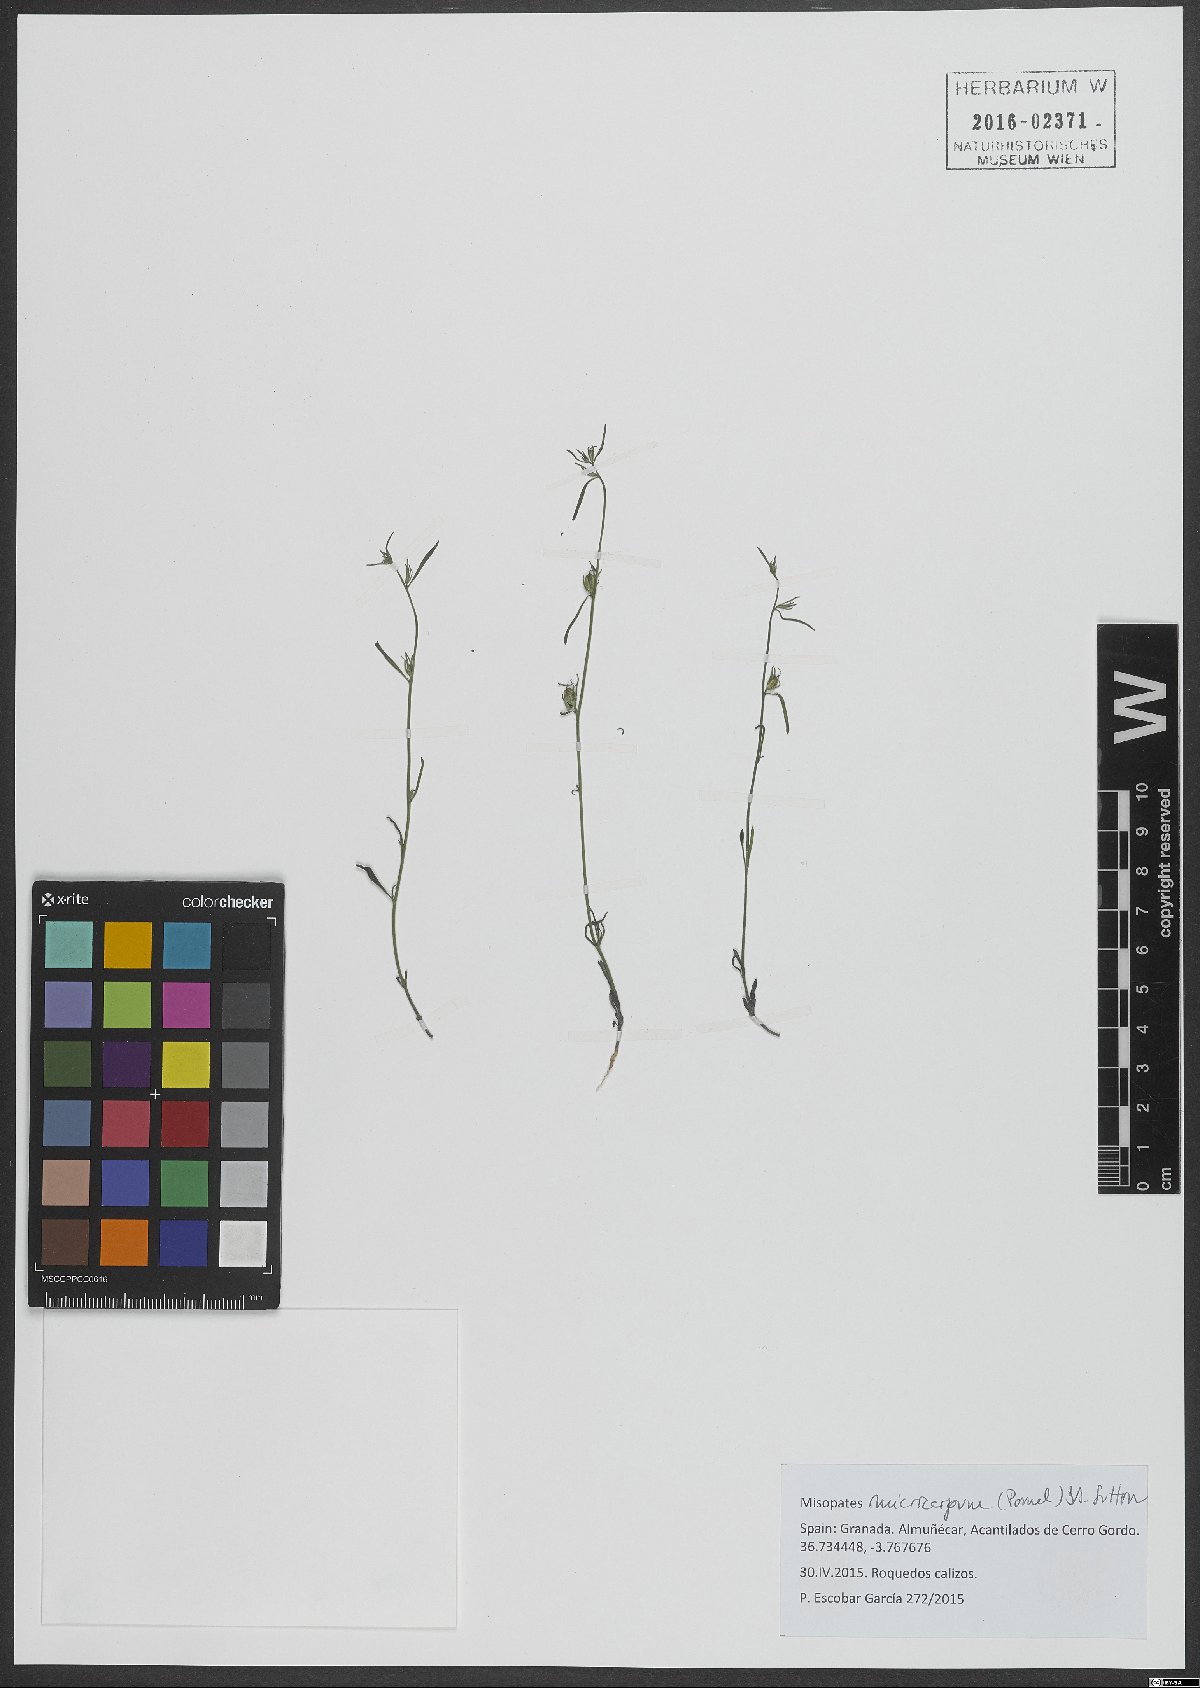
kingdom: Plantae
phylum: Tracheophyta
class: Magnoliopsida
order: Lamiales
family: Plantaginaceae
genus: Misopates
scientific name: Misopates microcarpum
